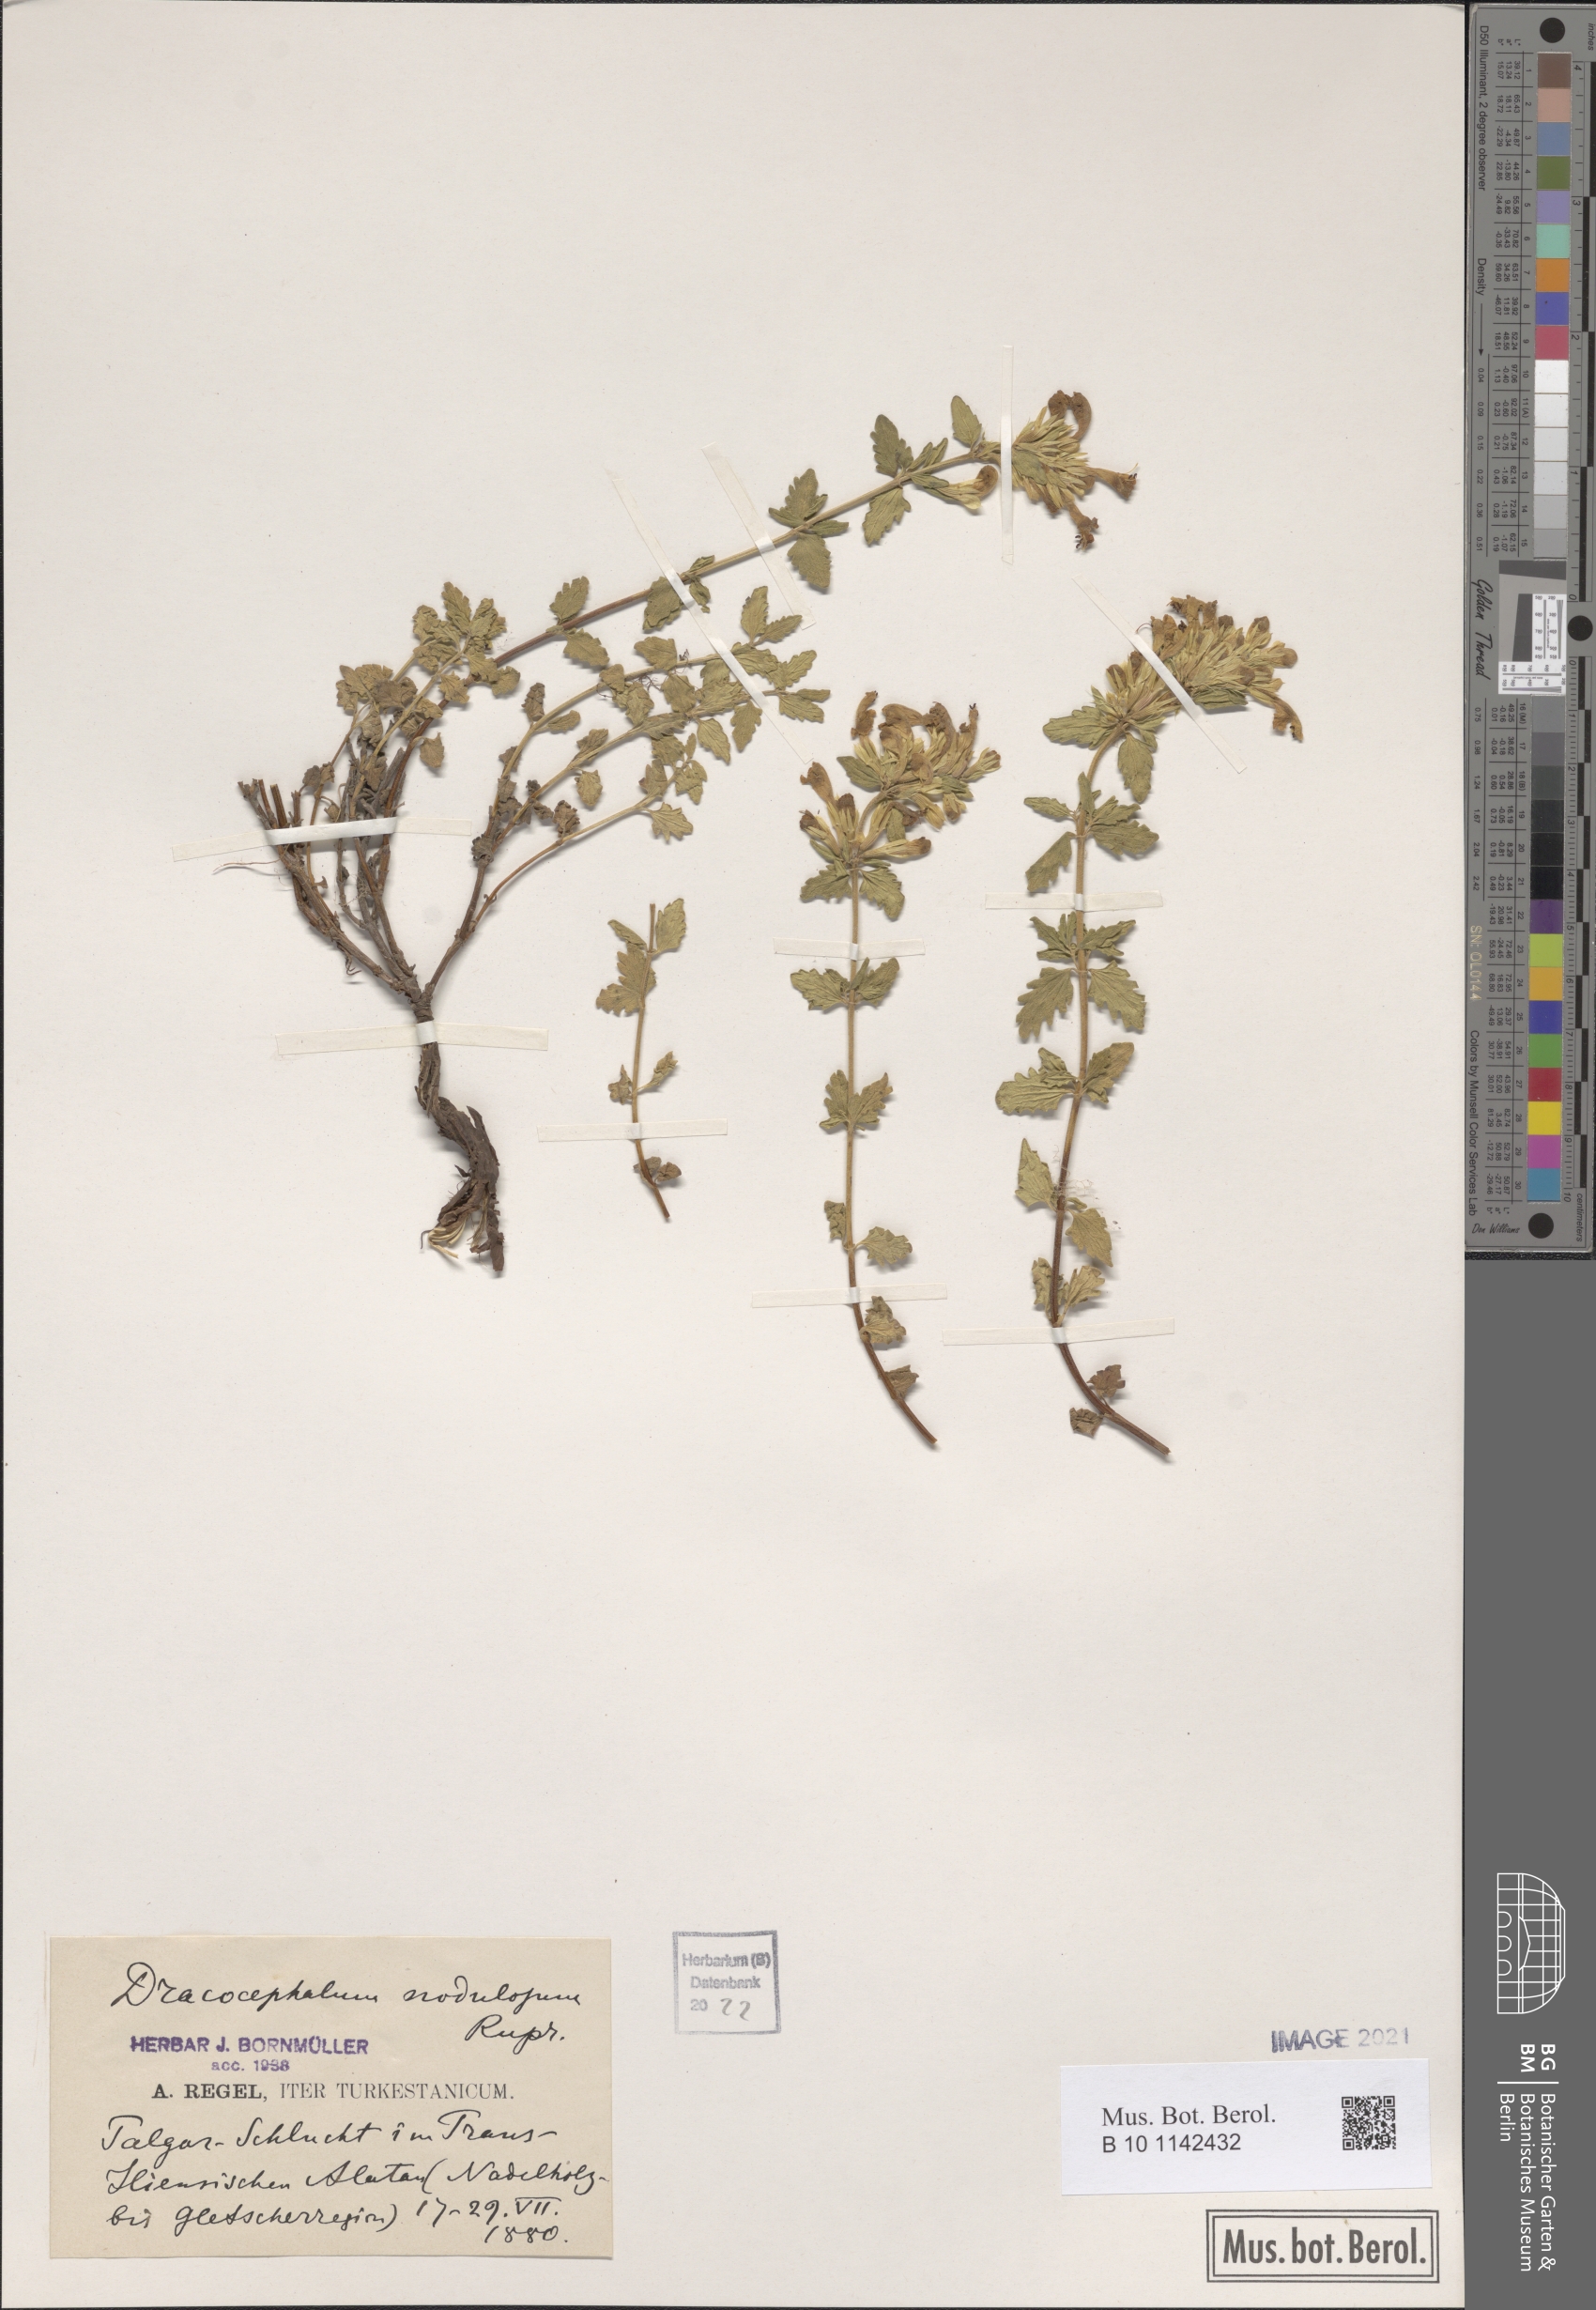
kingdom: Plantae
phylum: Tracheophyta
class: Magnoliopsida
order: Lamiales
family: Lamiaceae
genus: Dracocephalum
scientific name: Dracocephalum nodulosum
